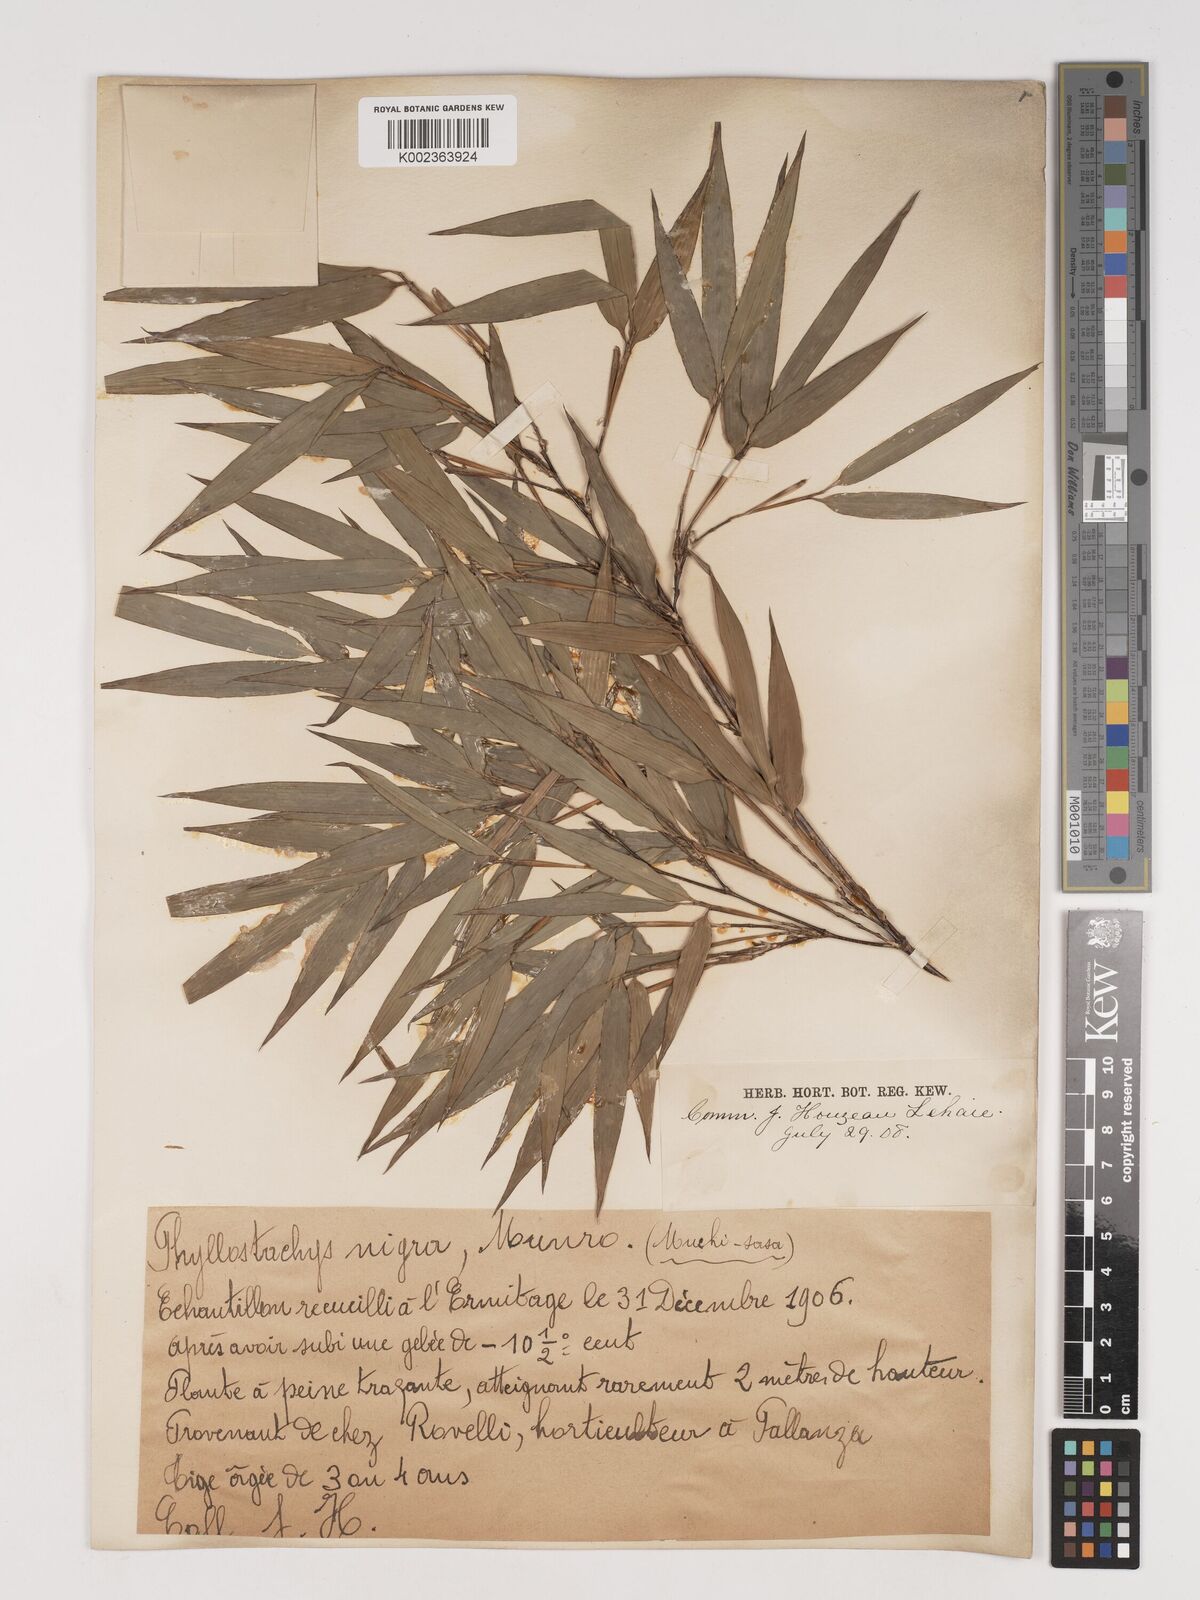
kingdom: Plantae
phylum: Tracheophyta
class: Liliopsida
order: Poales
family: Poaceae
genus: Phyllostachys
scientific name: Phyllostachys nigra
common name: Black bamboo
